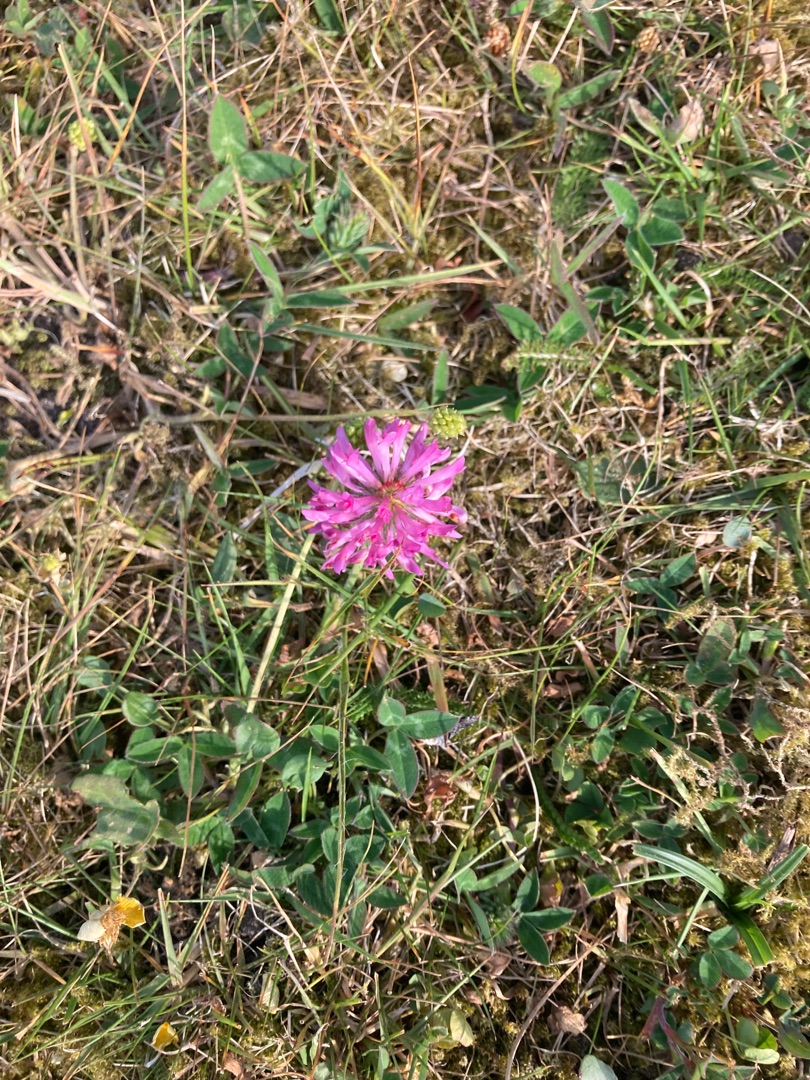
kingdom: Plantae
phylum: Tracheophyta
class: Magnoliopsida
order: Fabales
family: Fabaceae
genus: Trifolium
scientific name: Trifolium pratense
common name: Rød-kløver
